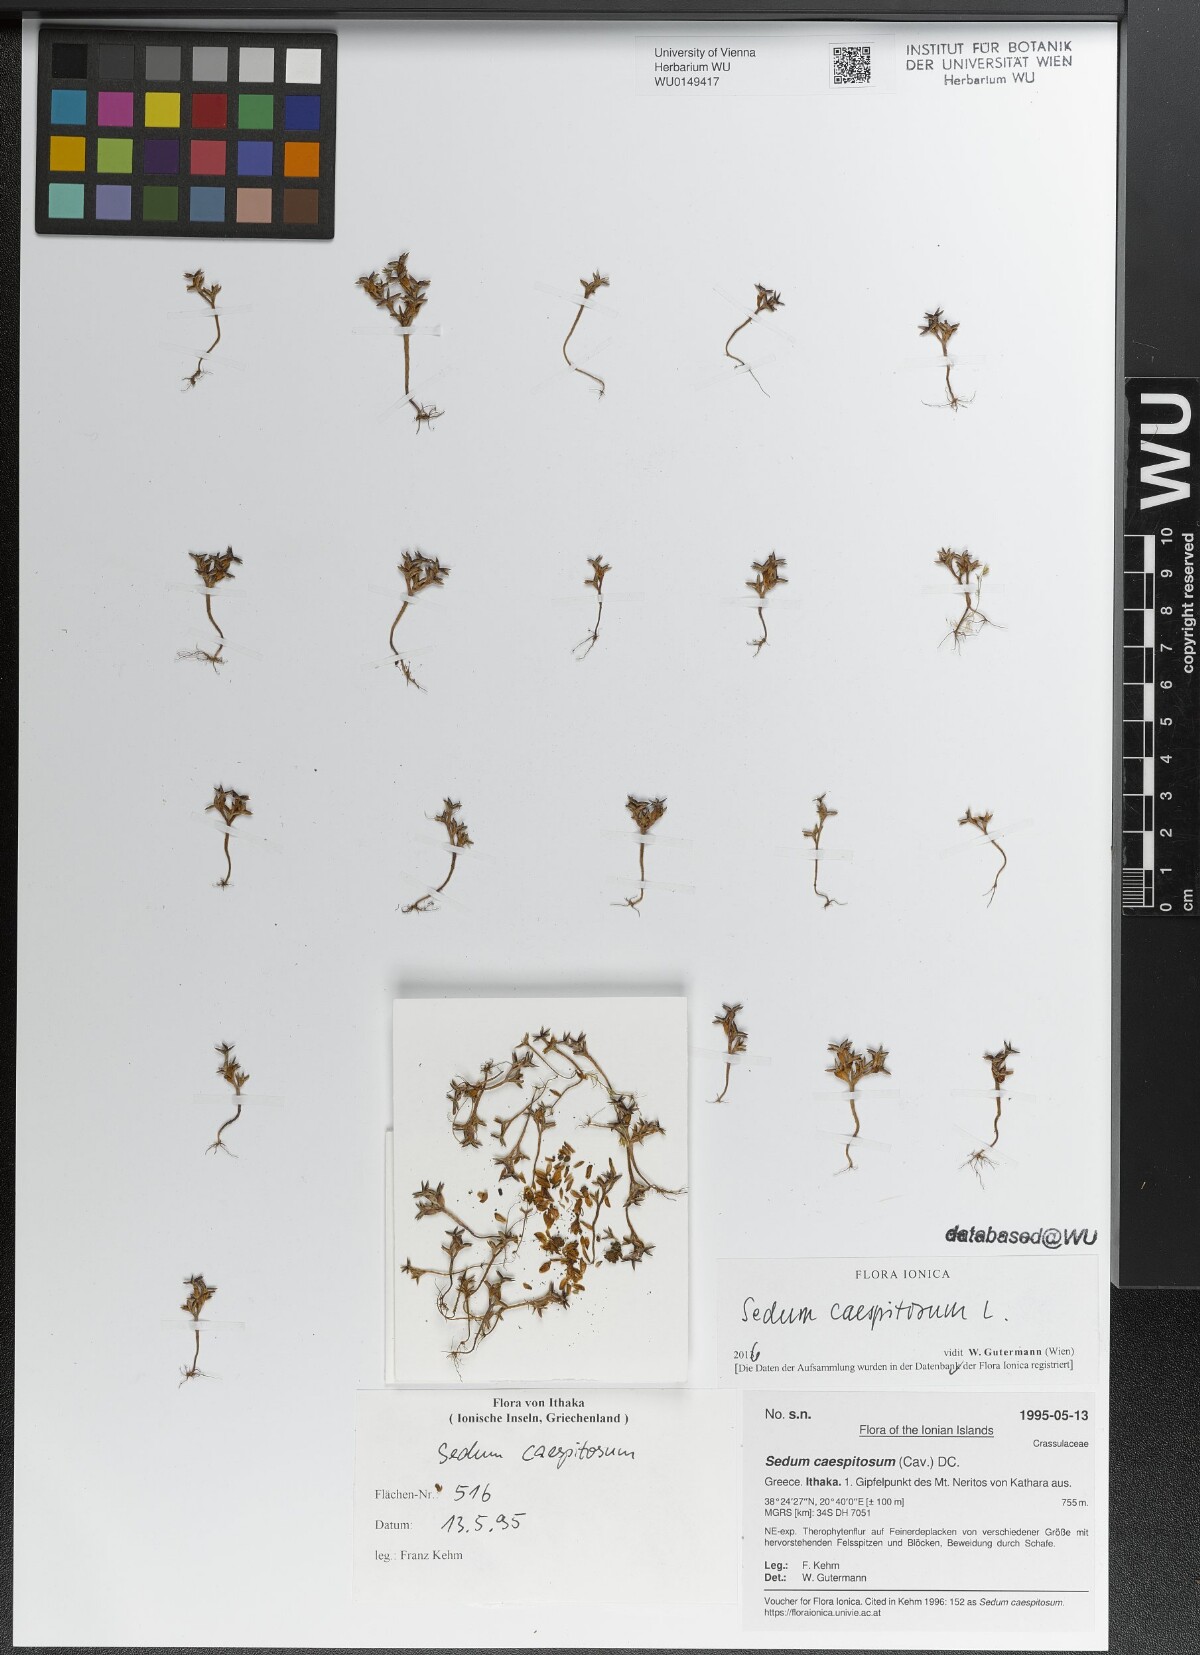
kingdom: Plantae
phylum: Tracheophyta
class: Magnoliopsida
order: Saxifragales
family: Crassulaceae
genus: Sedum
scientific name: Sedum cespitosum
